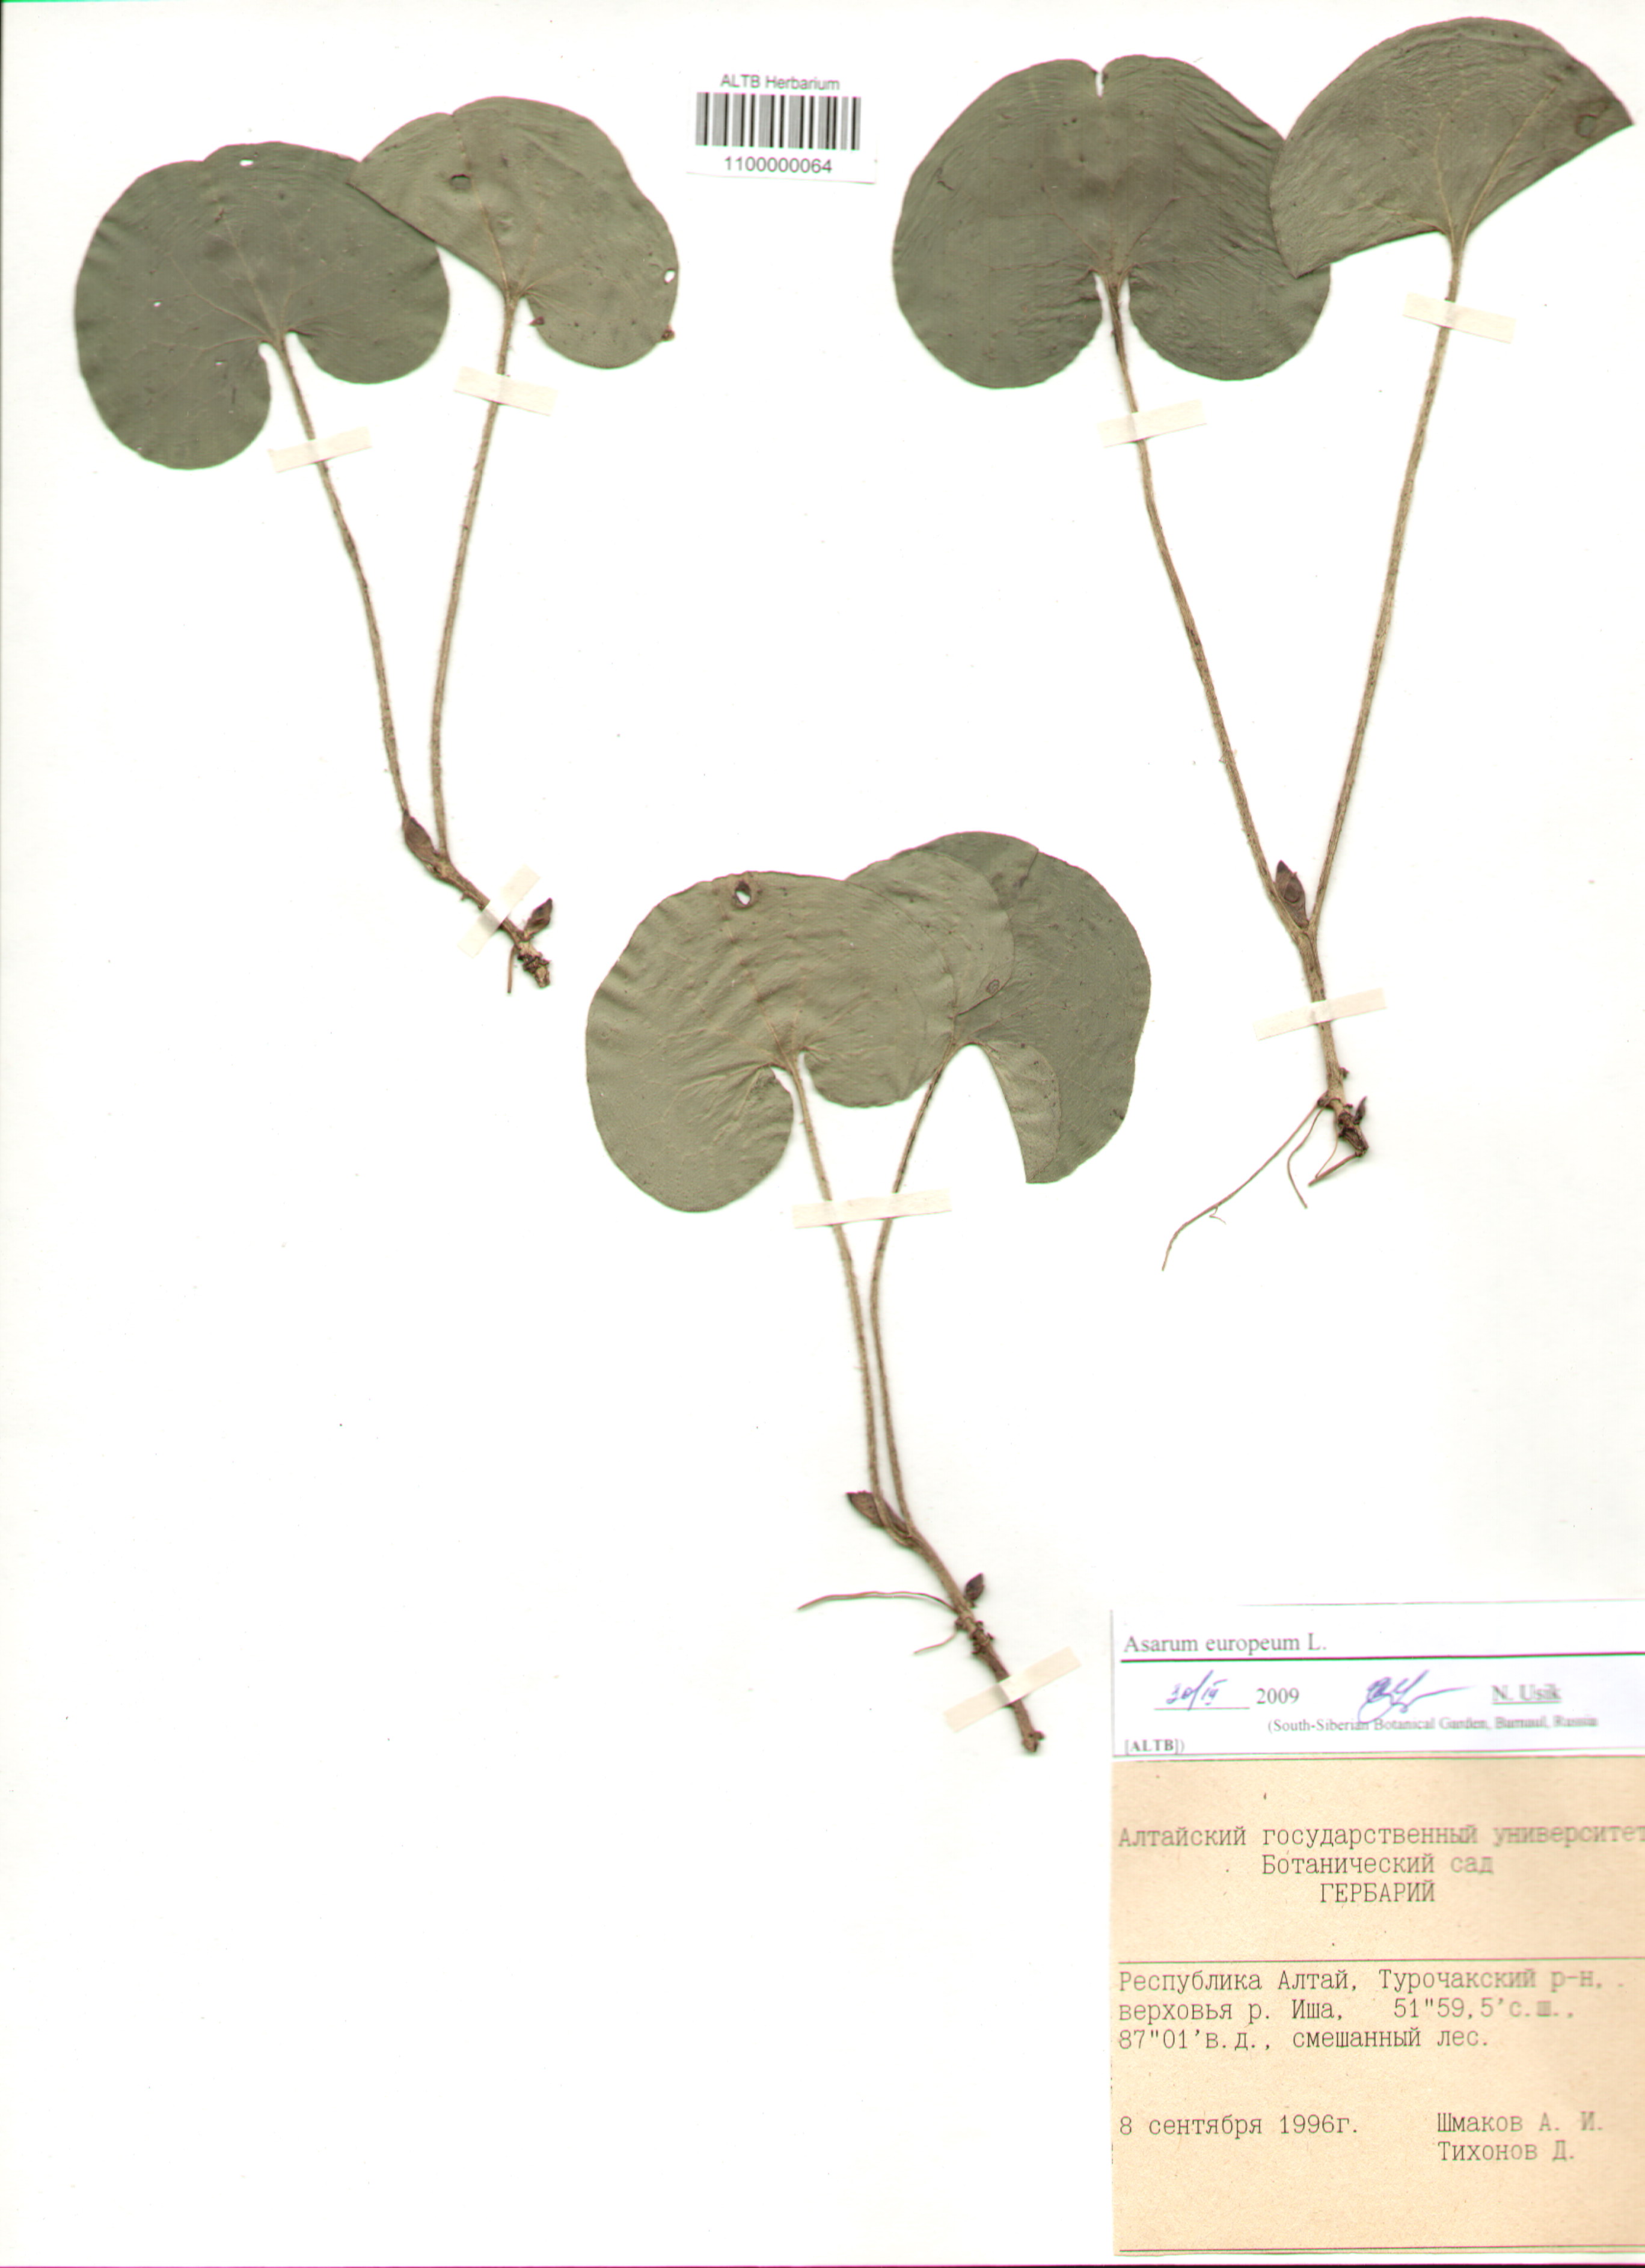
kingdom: Plantae
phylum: Tracheophyta
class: Magnoliopsida
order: Piperales
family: Aristolochiaceae
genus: Asarum
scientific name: Asarum europaeum
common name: Asarabacca
